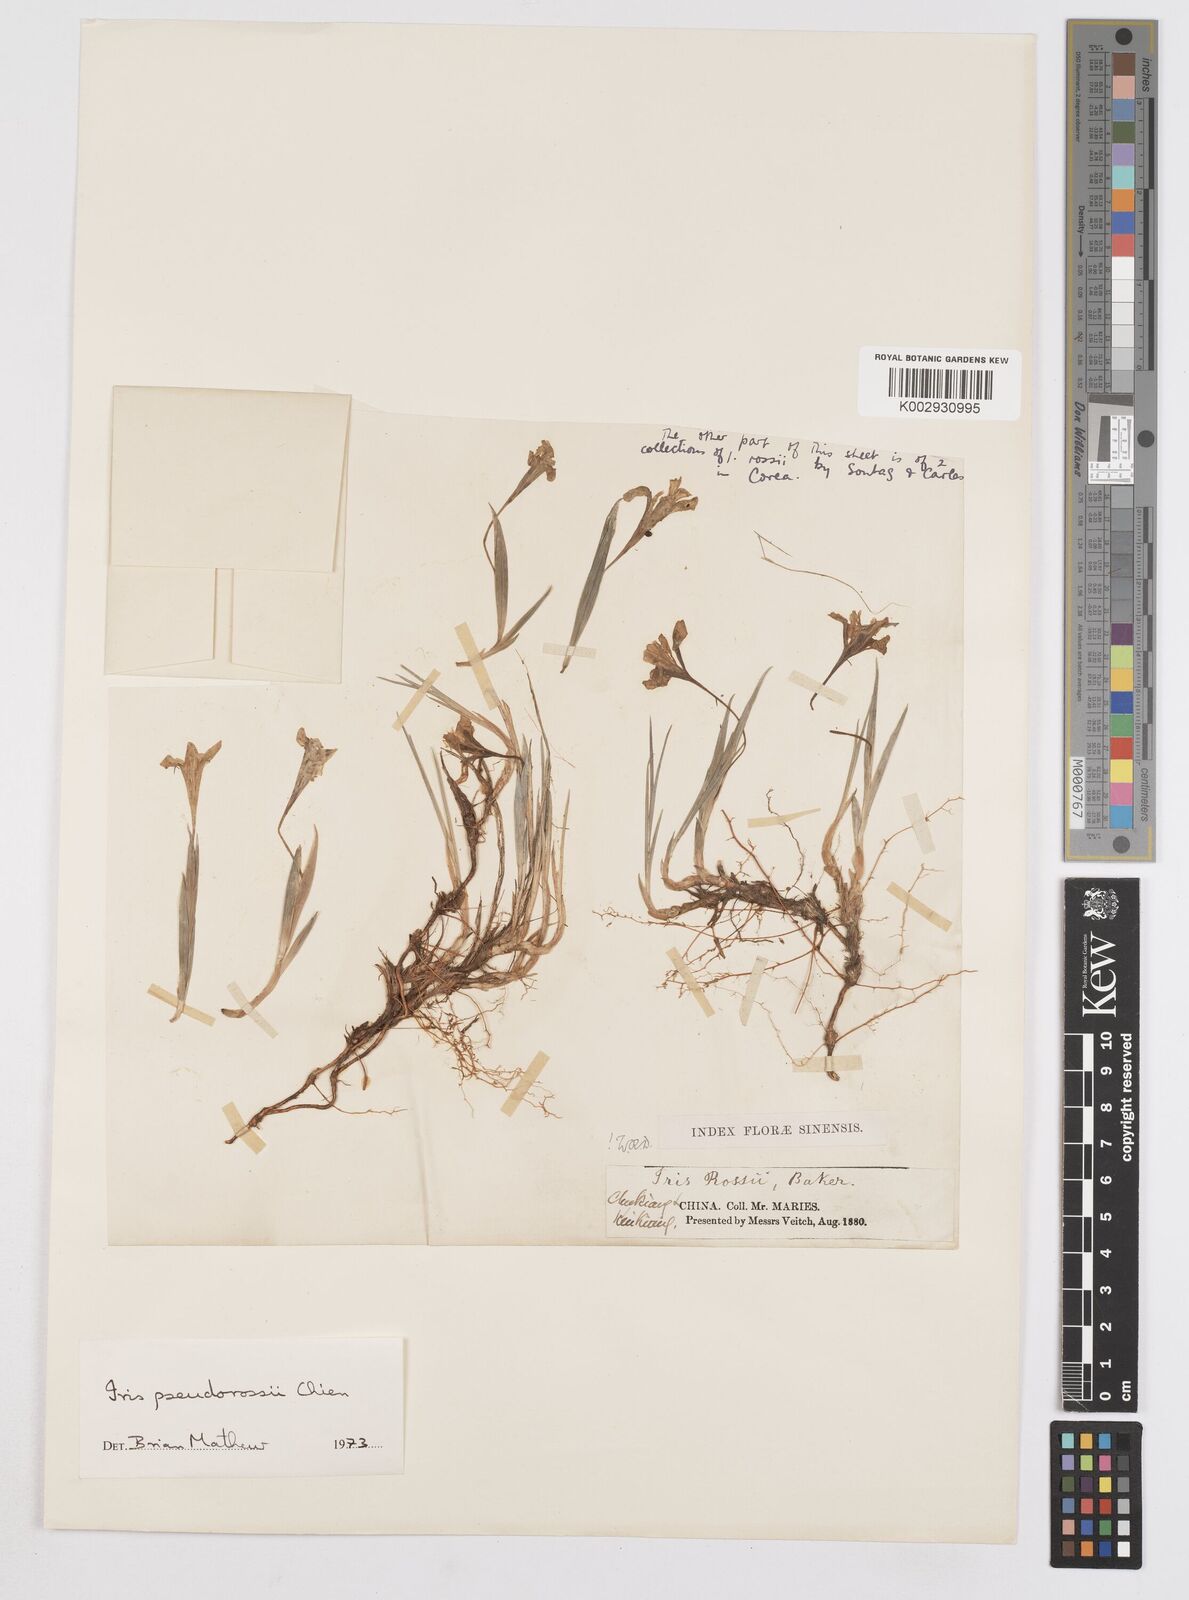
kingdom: Plantae
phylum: Tracheophyta
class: Liliopsida
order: Asparagales
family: Iridaceae
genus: Iris
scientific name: Iris proantha
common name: Small iris
